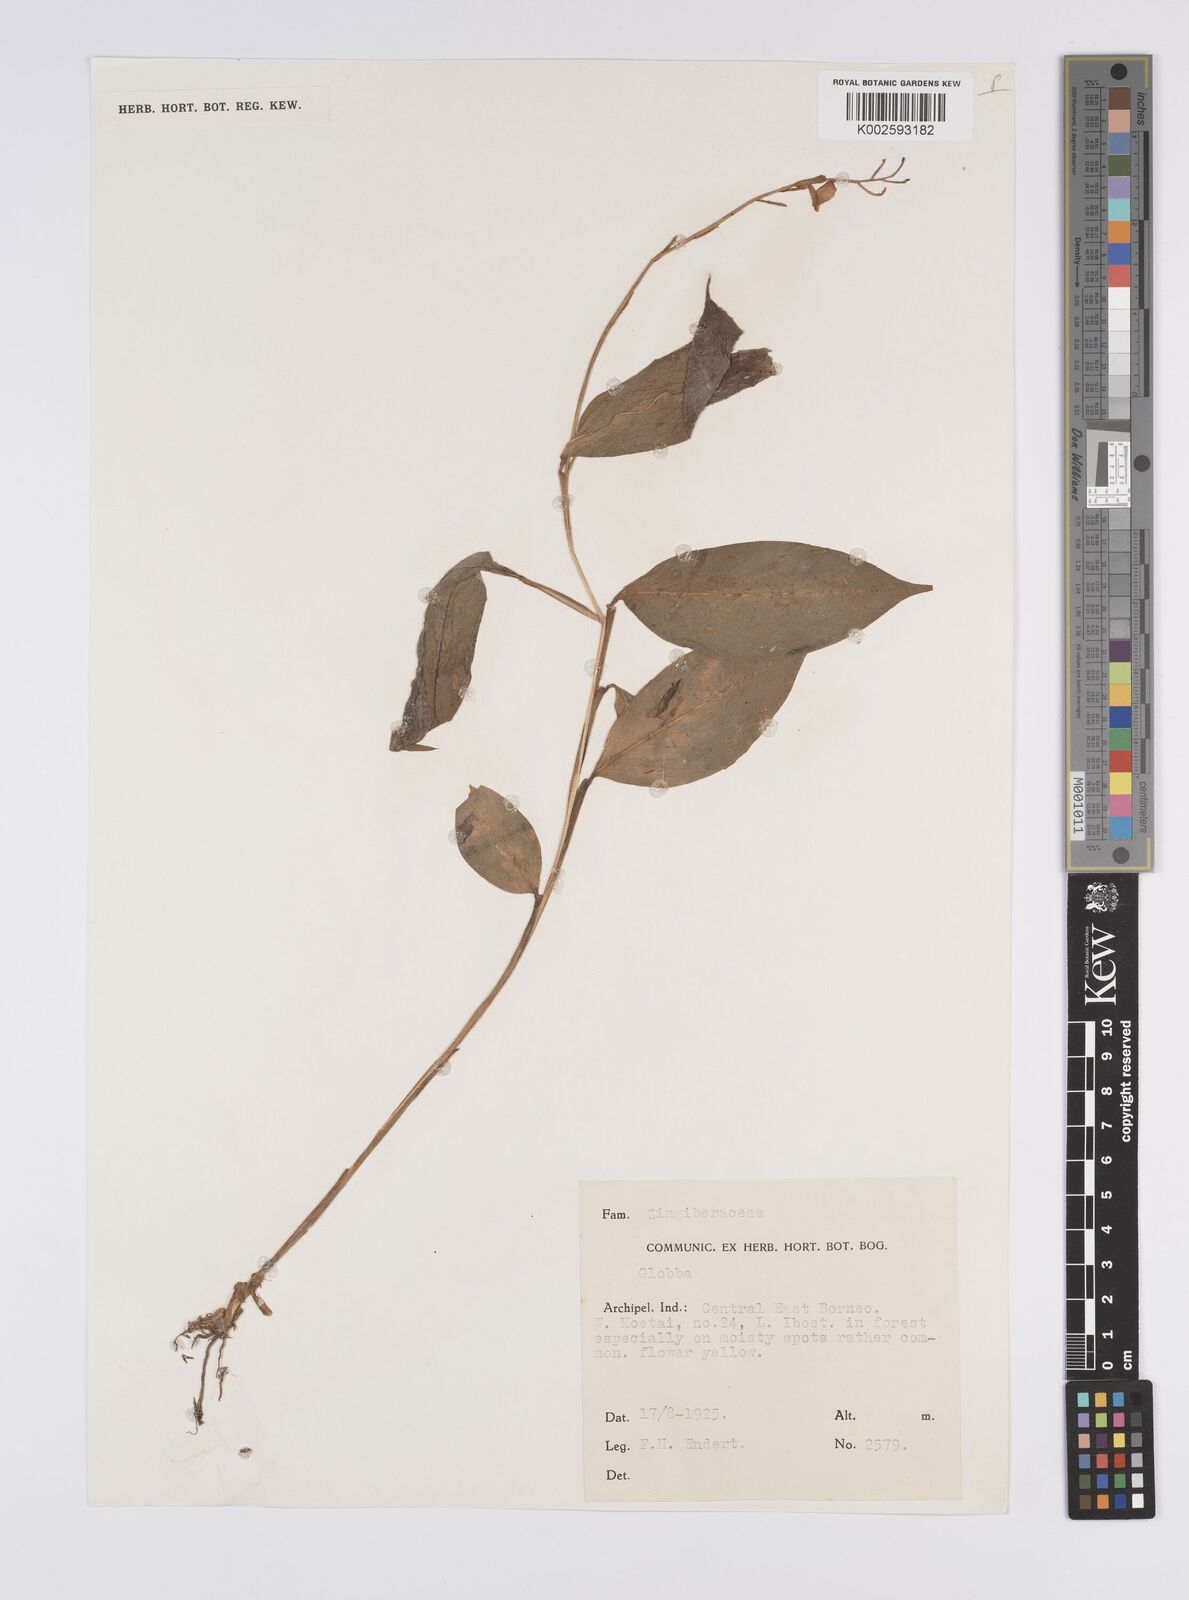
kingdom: Plantae
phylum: Tracheophyta
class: Liliopsida
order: Zingiberales
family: Zingiberaceae
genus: Globba
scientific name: Globba
